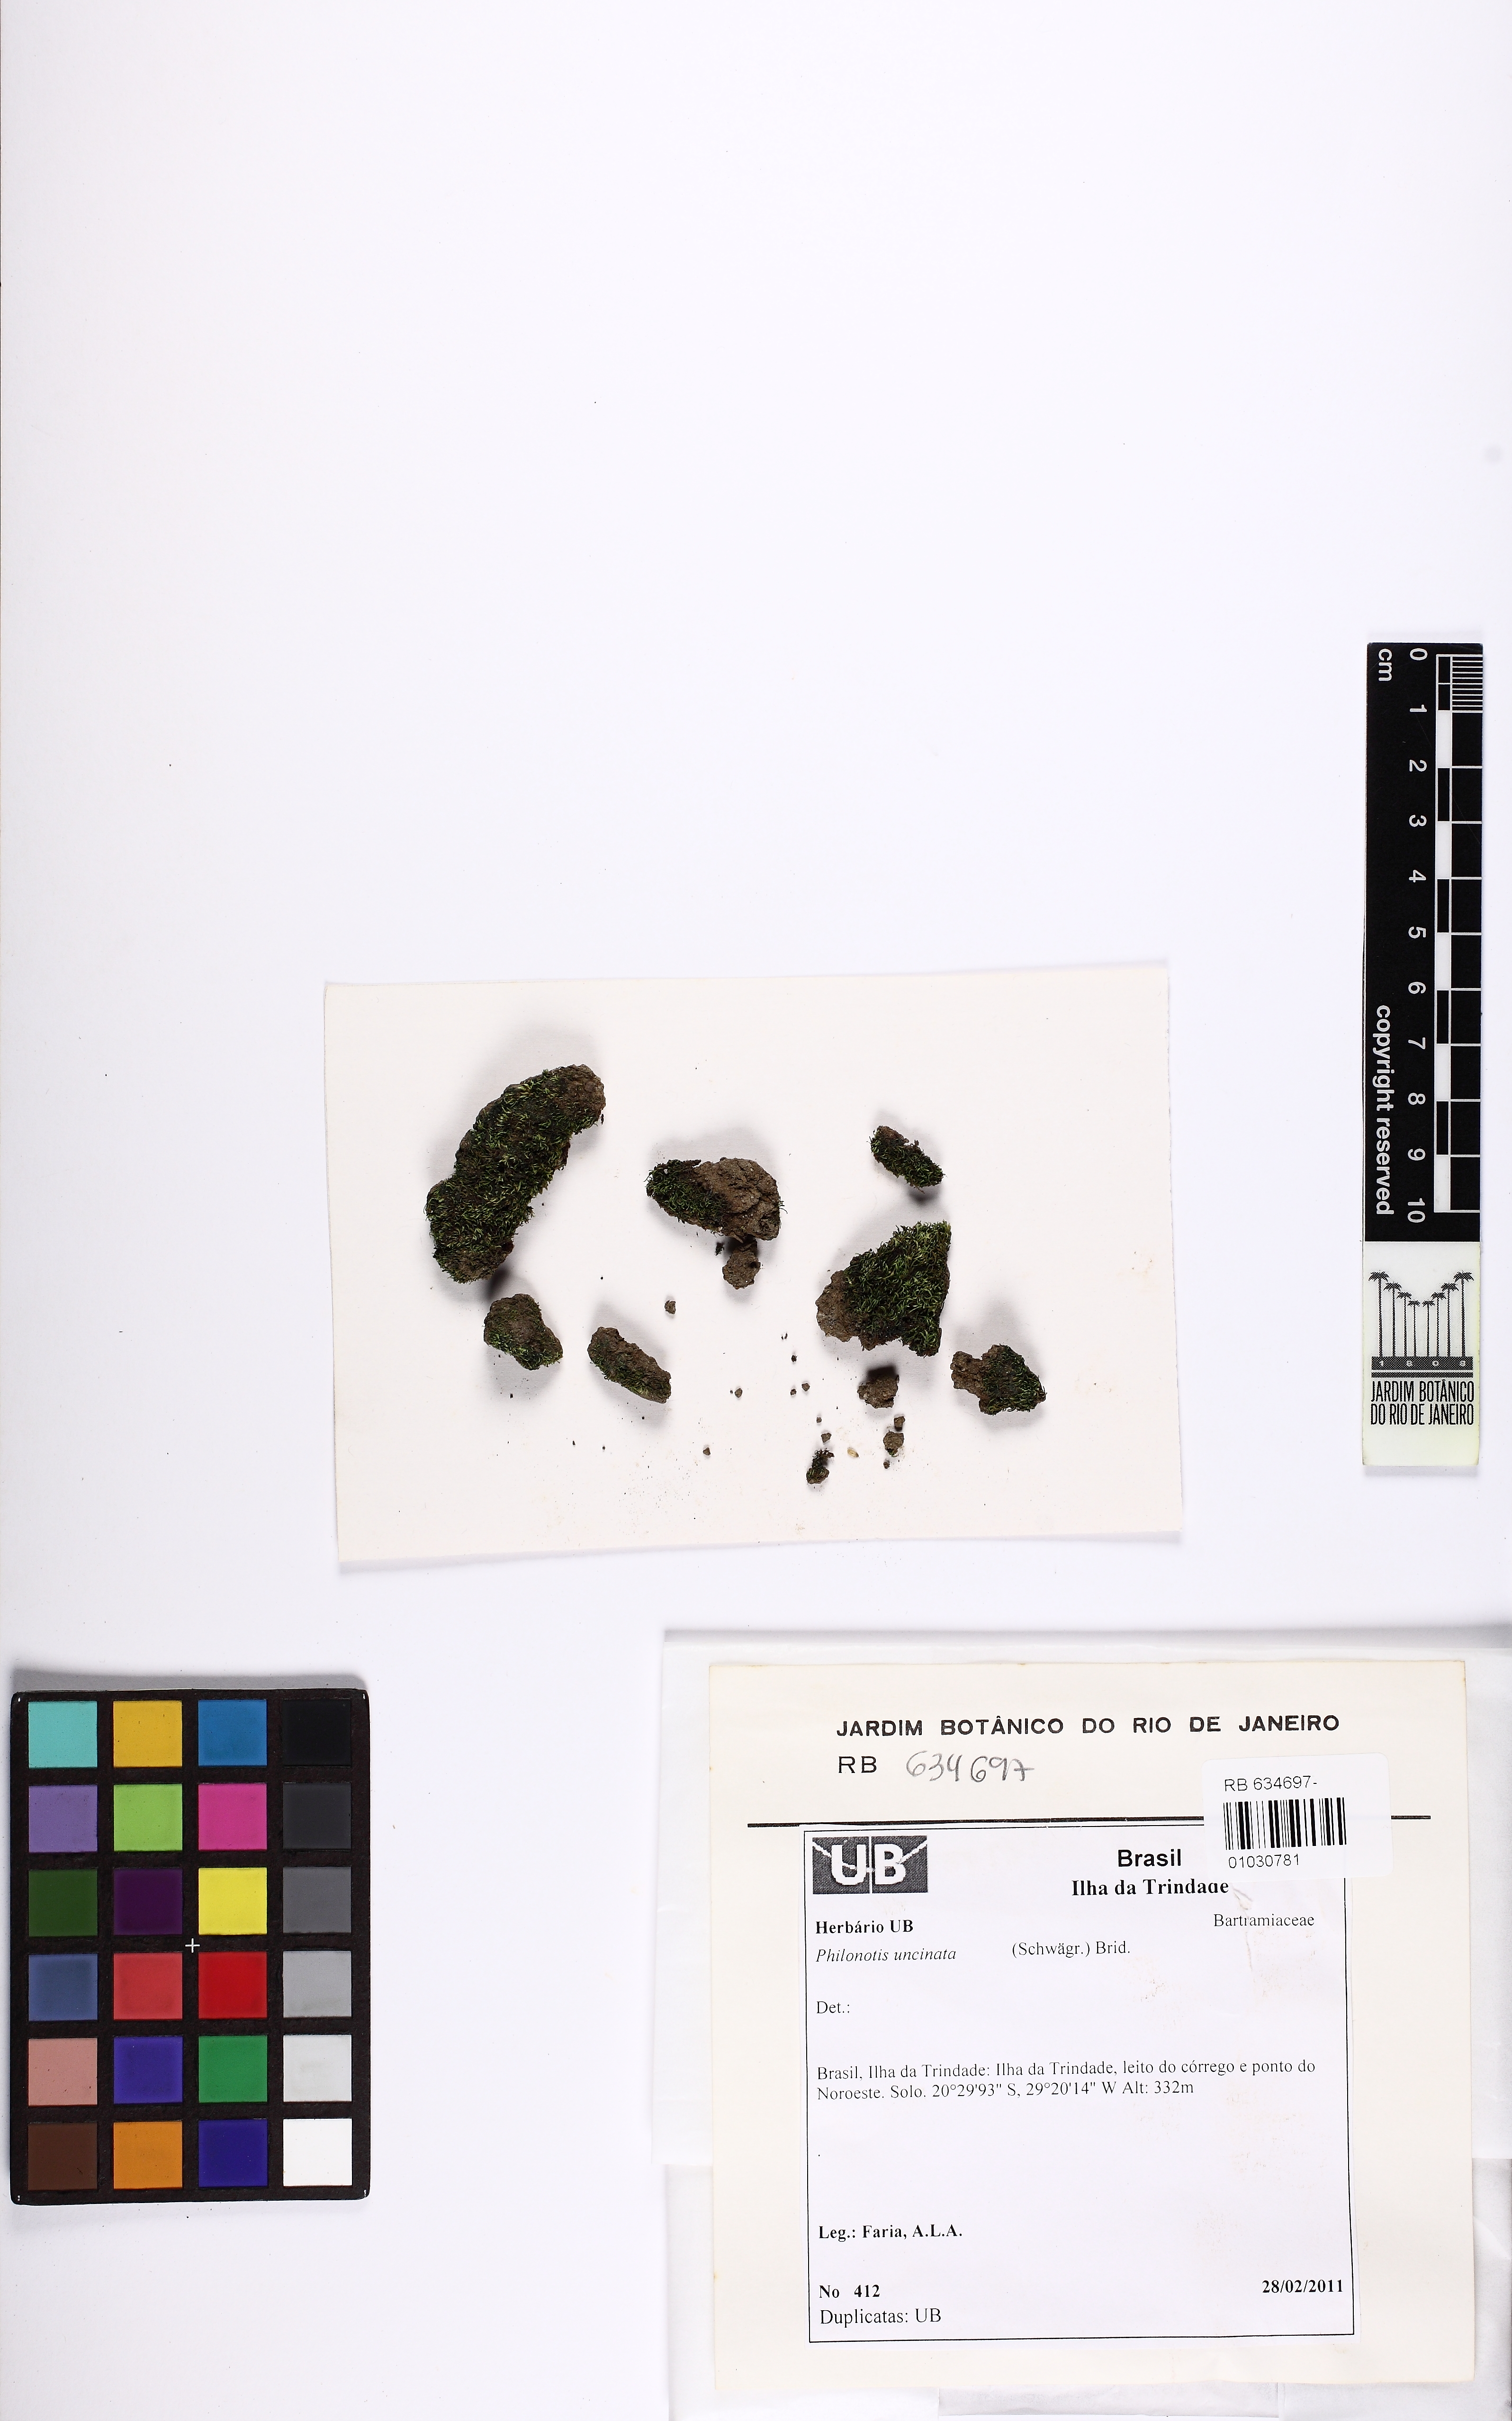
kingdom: Plantae
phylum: Bryophyta
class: Bryopsida
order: Bartramiales
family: Bartramiaceae
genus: Philonotis
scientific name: Philonotis uncinata
